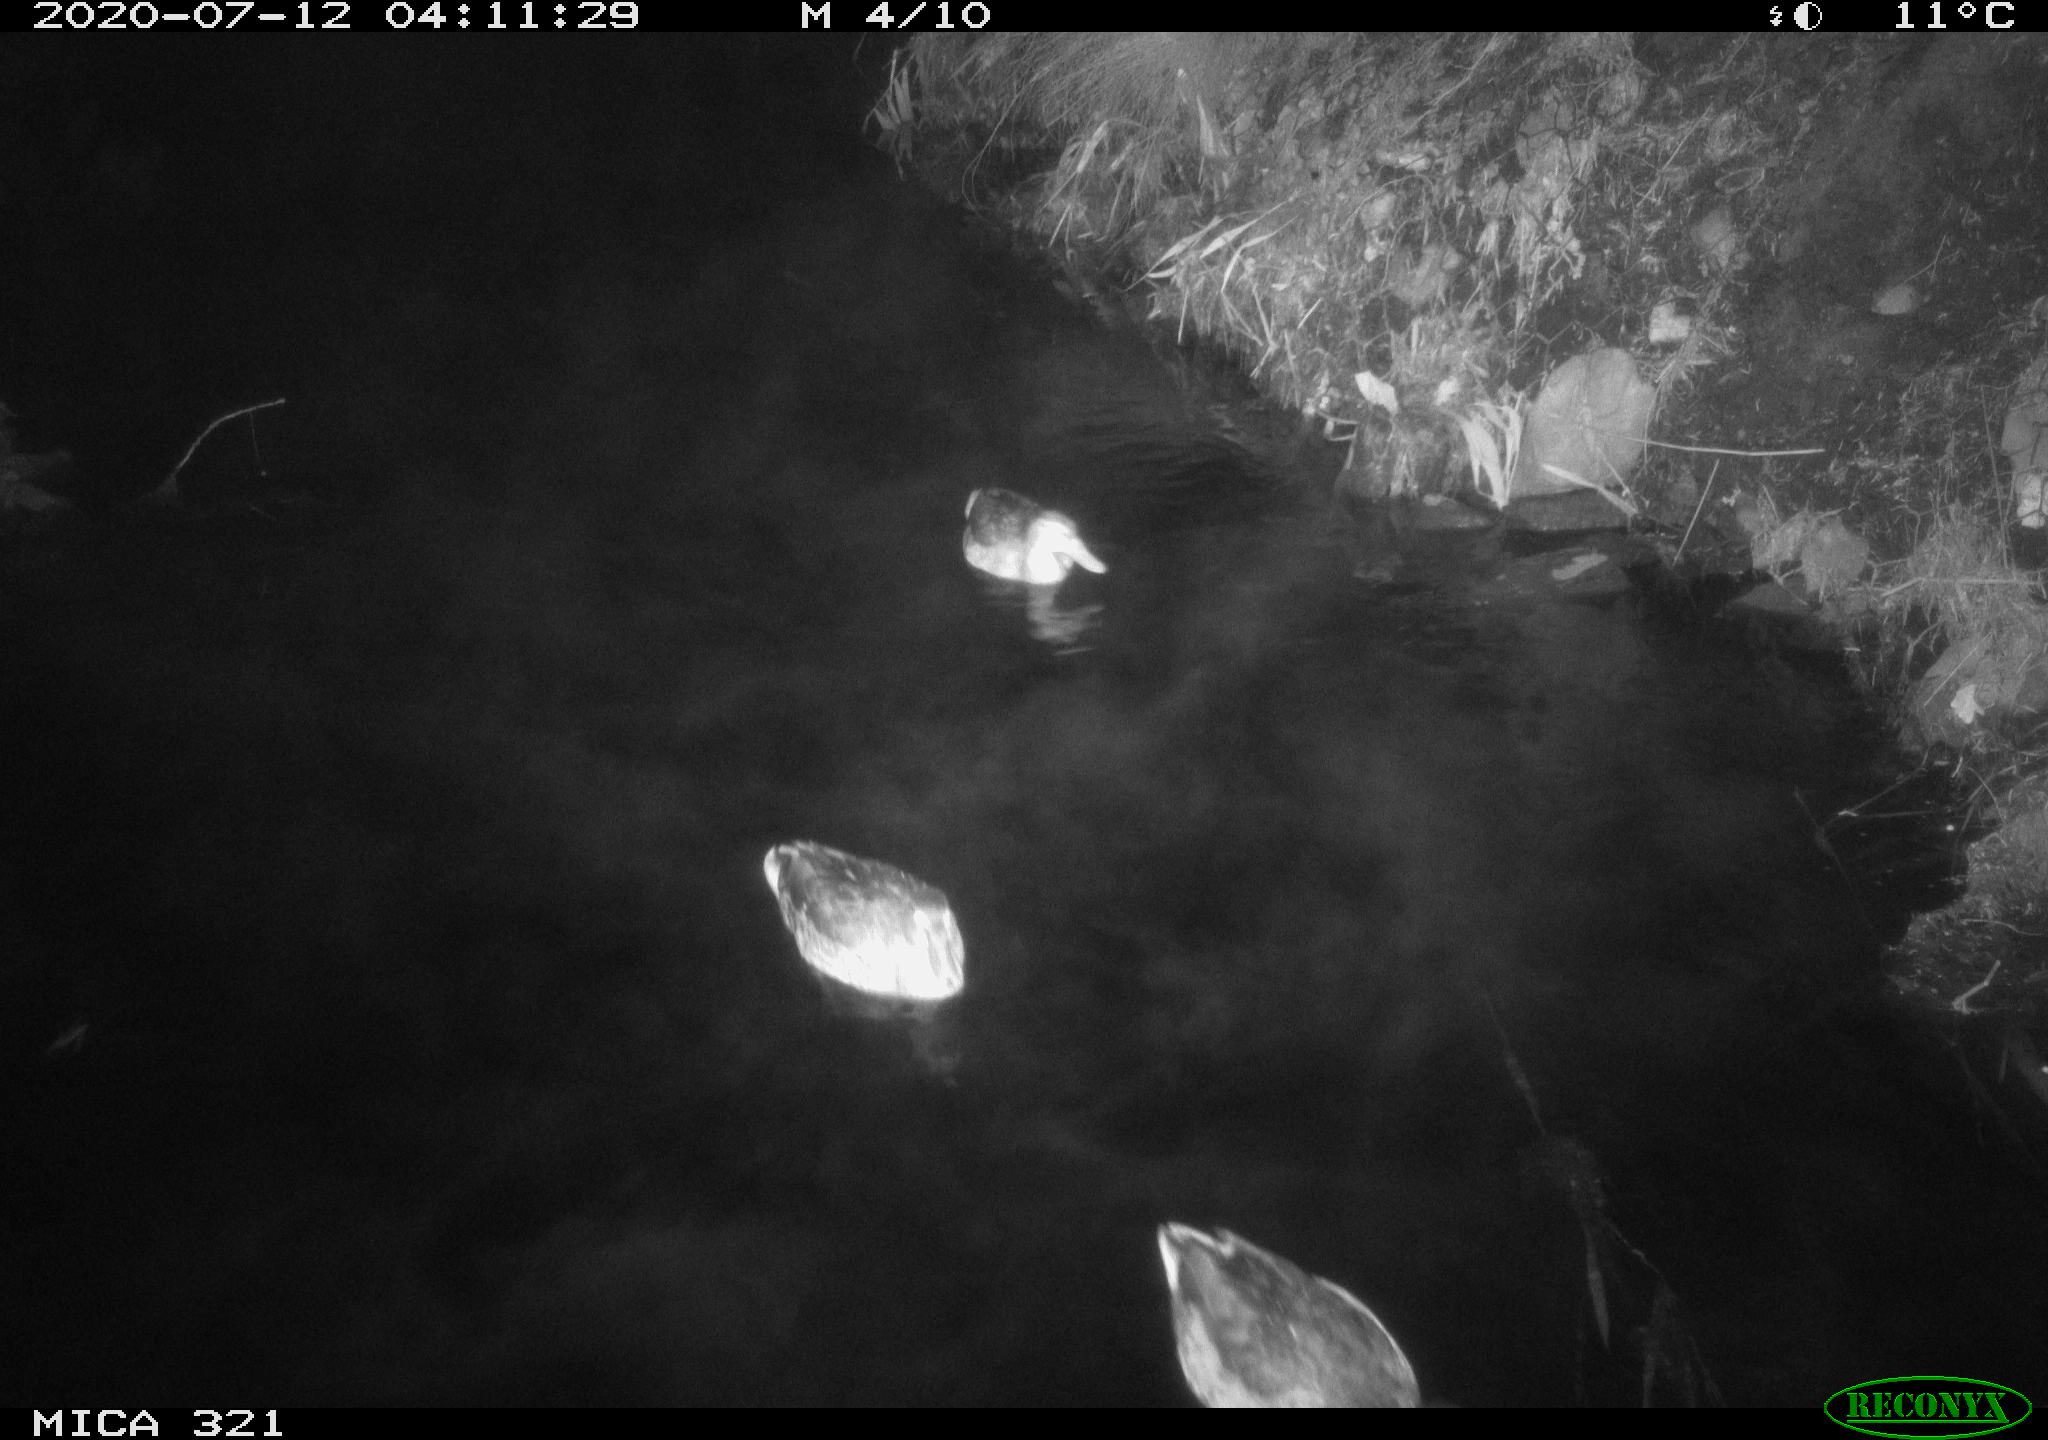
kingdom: Animalia
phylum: Chordata
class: Aves
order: Anseriformes
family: Anatidae
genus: Anas
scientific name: Anas platyrhynchos
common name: Mallard
